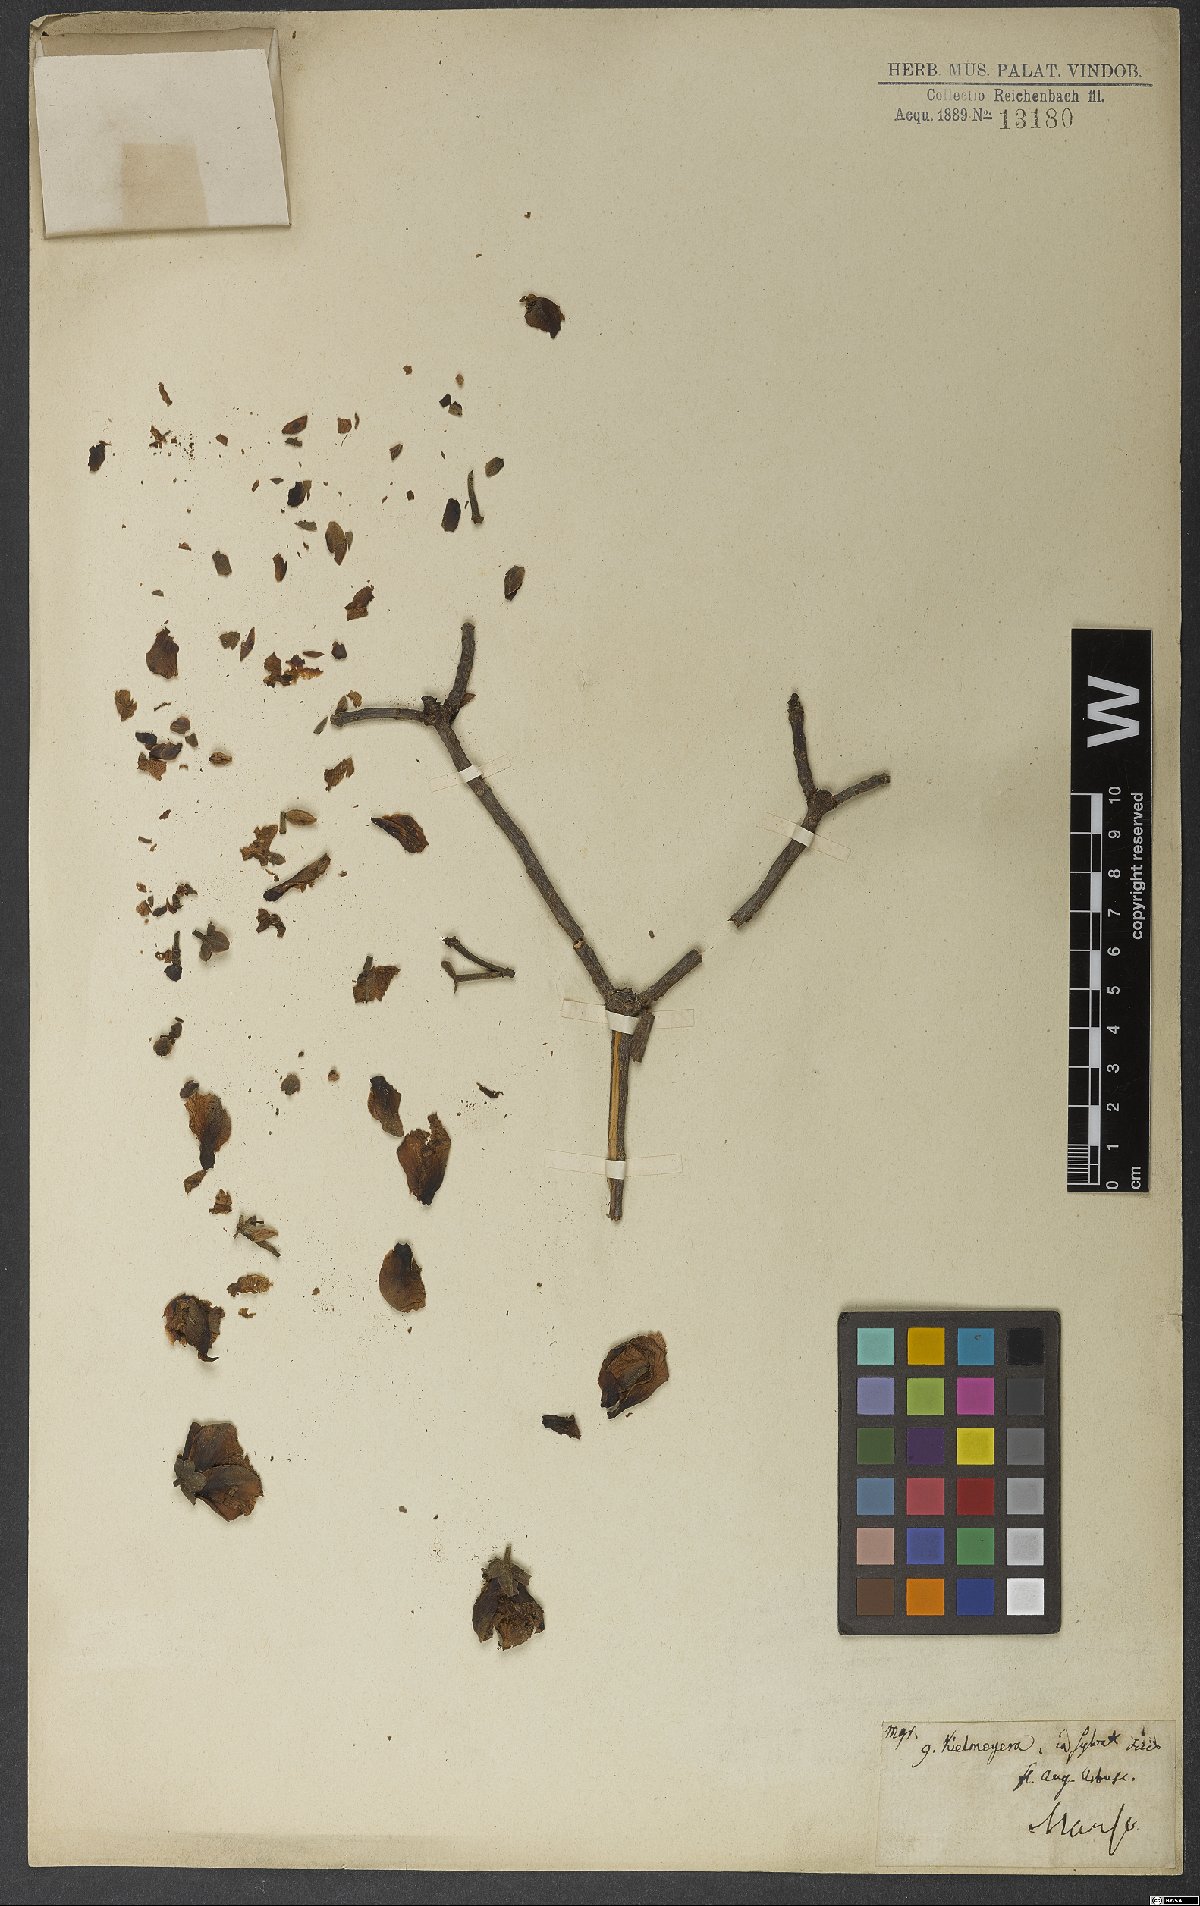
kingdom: Plantae
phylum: Tracheophyta
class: Magnoliopsida
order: Malpighiales
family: Calophyllaceae
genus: Kielmeyera
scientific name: Kielmeyera rubriflora
